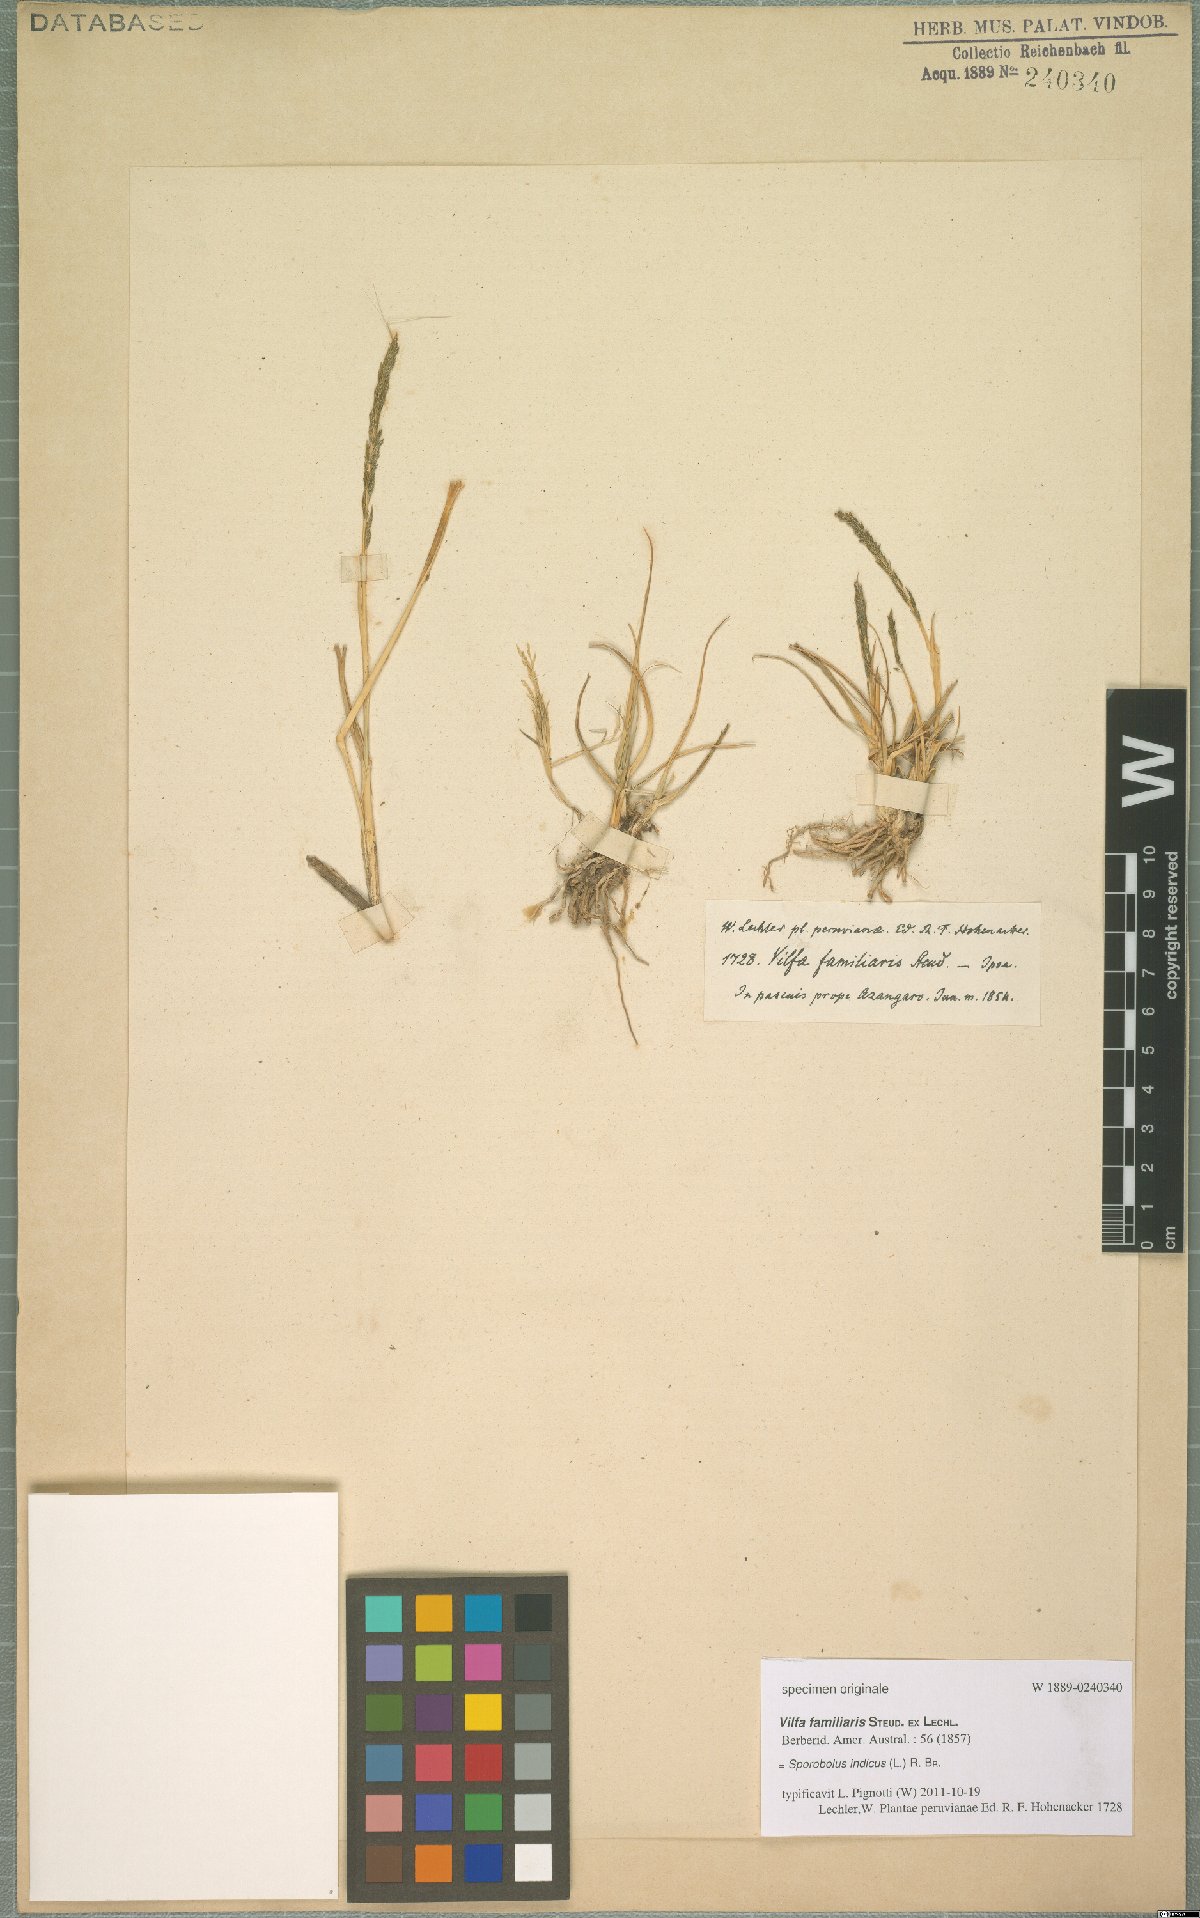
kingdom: Plantae
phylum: Tracheophyta
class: Liliopsida
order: Poales
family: Poaceae
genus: Sporobolus
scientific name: Sporobolus indicus
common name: Smut grass
